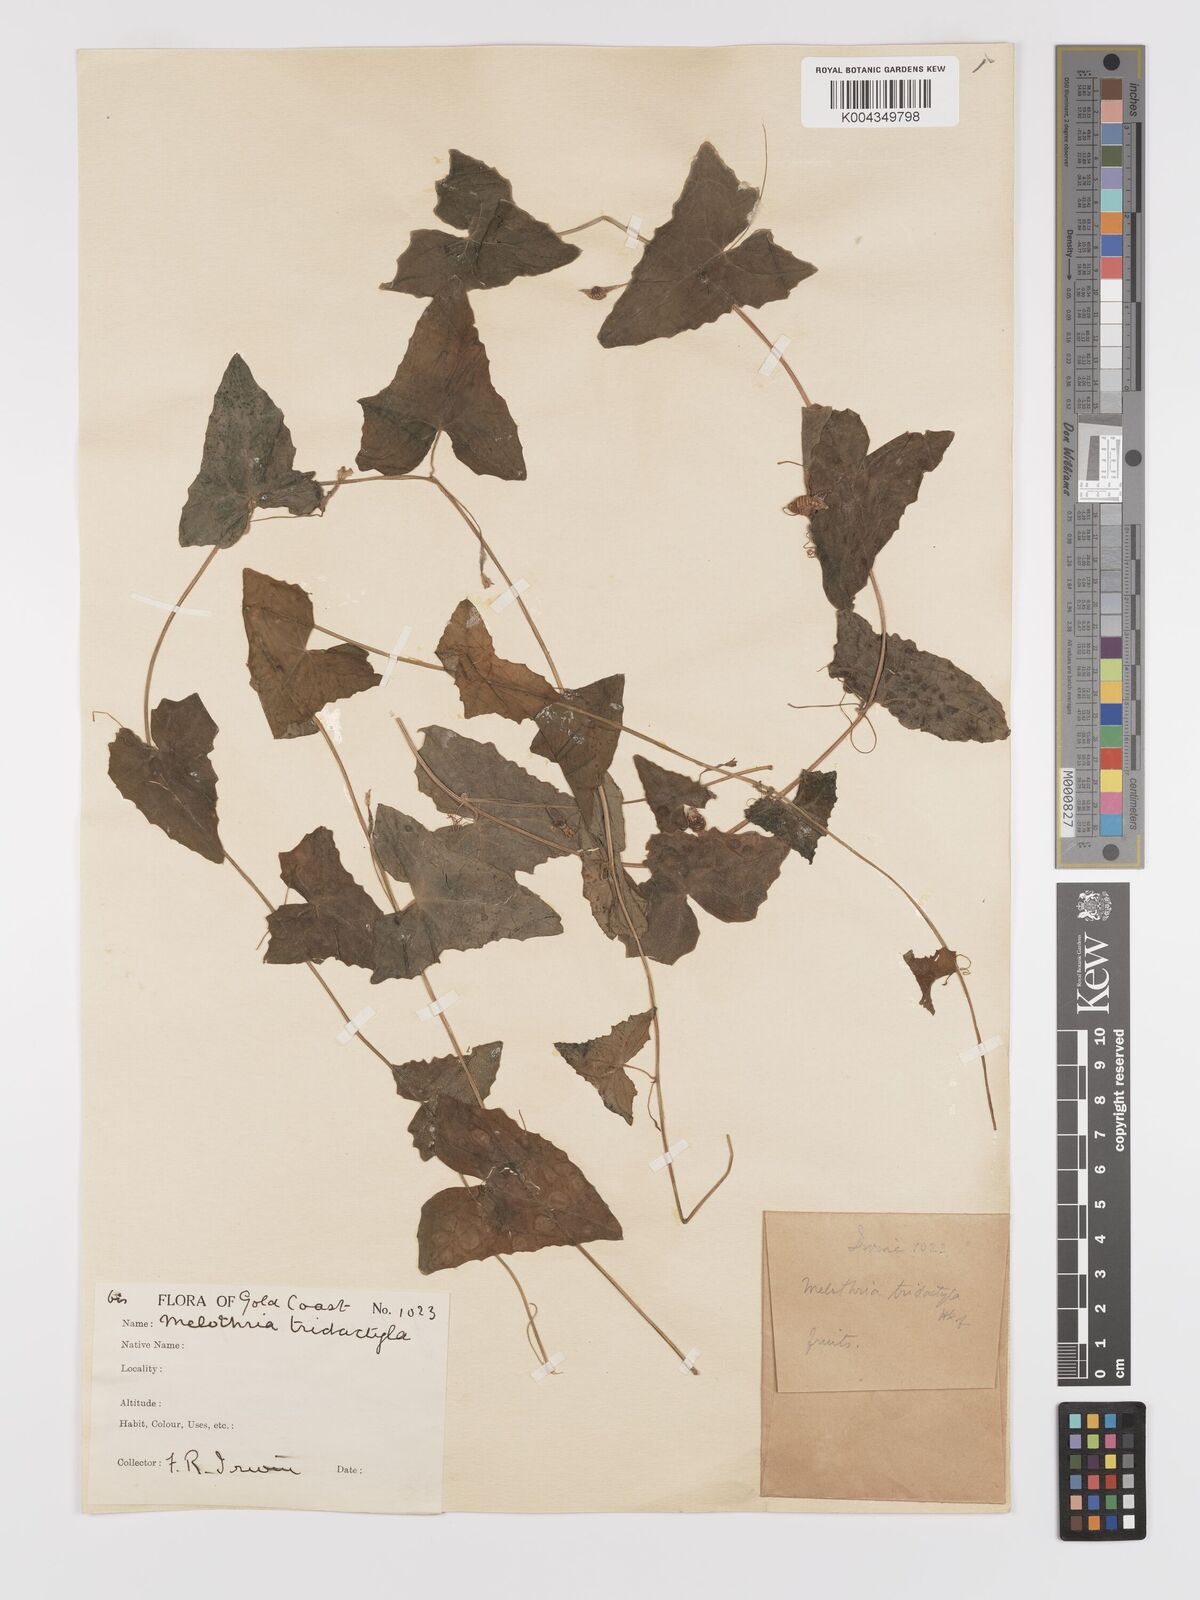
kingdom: Plantae
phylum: Tracheophyta
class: Magnoliopsida
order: Cucurbitales
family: Cucurbitaceae
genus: Zehneria
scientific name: Zehneria hallii
